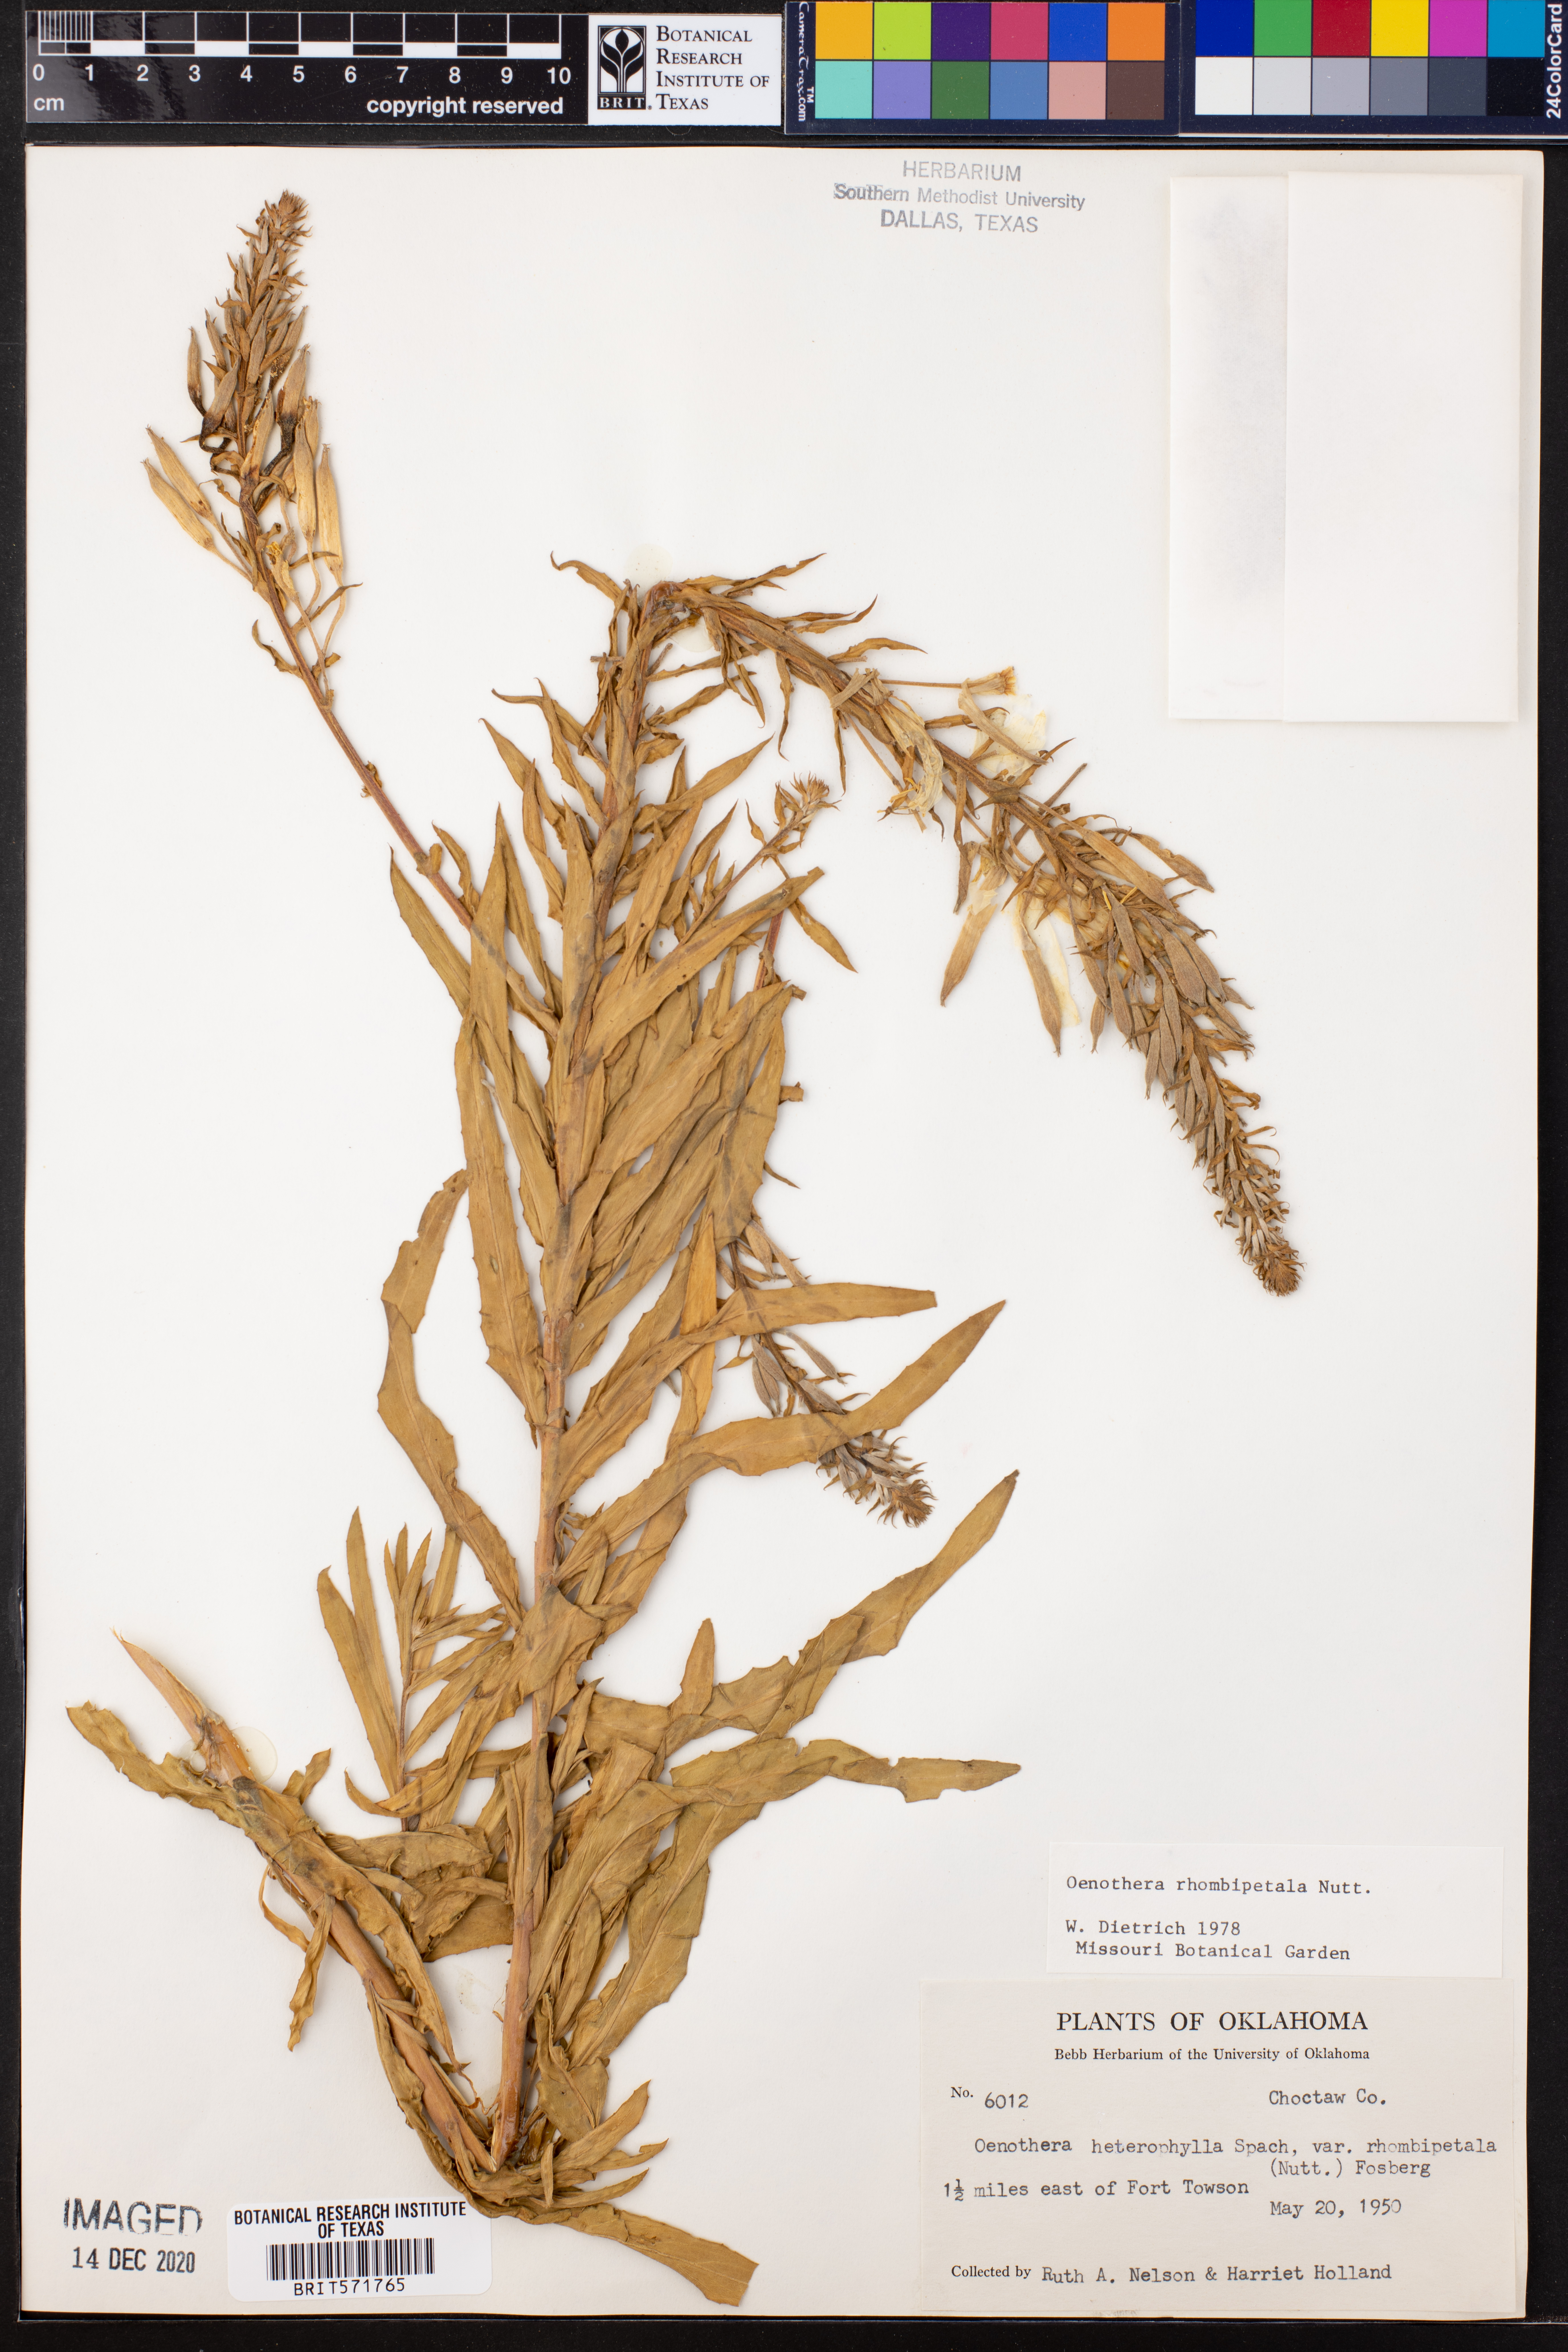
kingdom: Plantae
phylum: Tracheophyta
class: Magnoliopsida
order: Myrtales
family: Onagraceae
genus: Oenothera
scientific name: Oenothera rhombipetala
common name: Four-points evening-primrose
